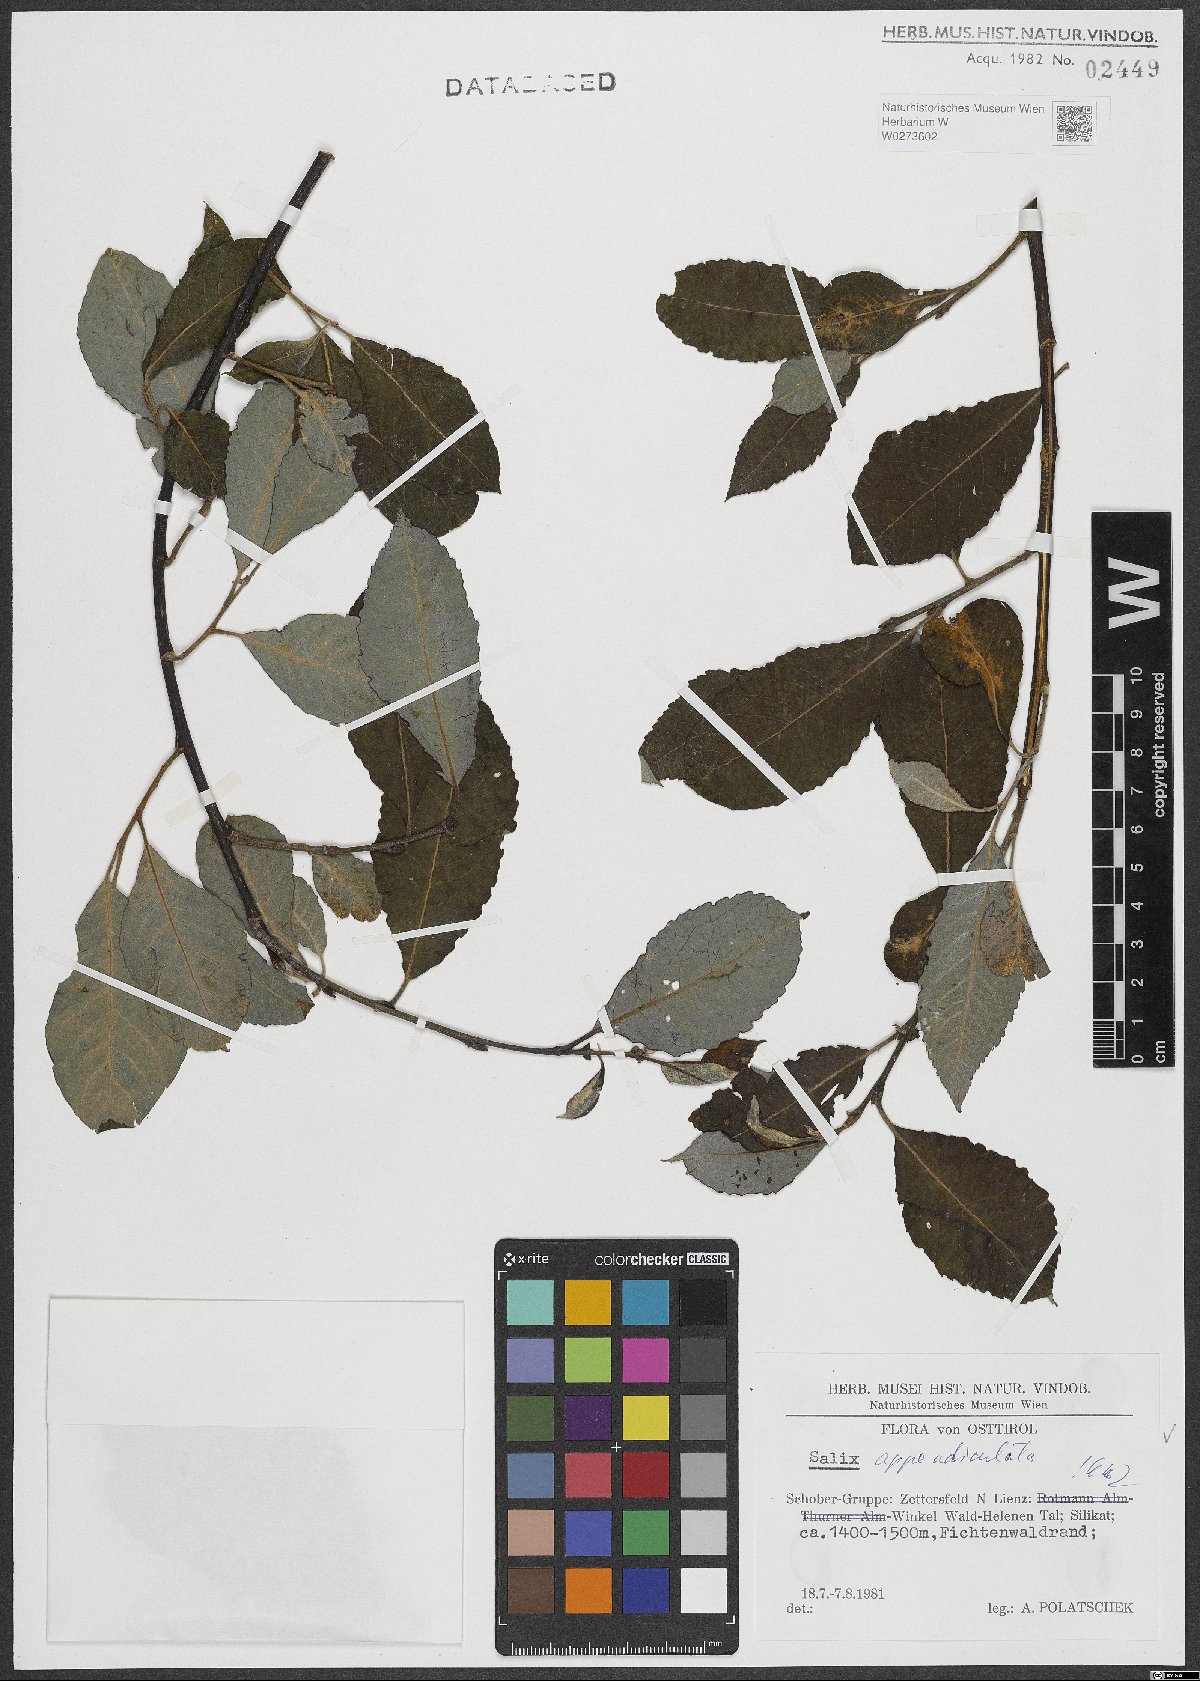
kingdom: Plantae
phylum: Tracheophyta
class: Magnoliopsida
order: Malpighiales
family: Salicaceae
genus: Salix
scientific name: Salix appendiculata
